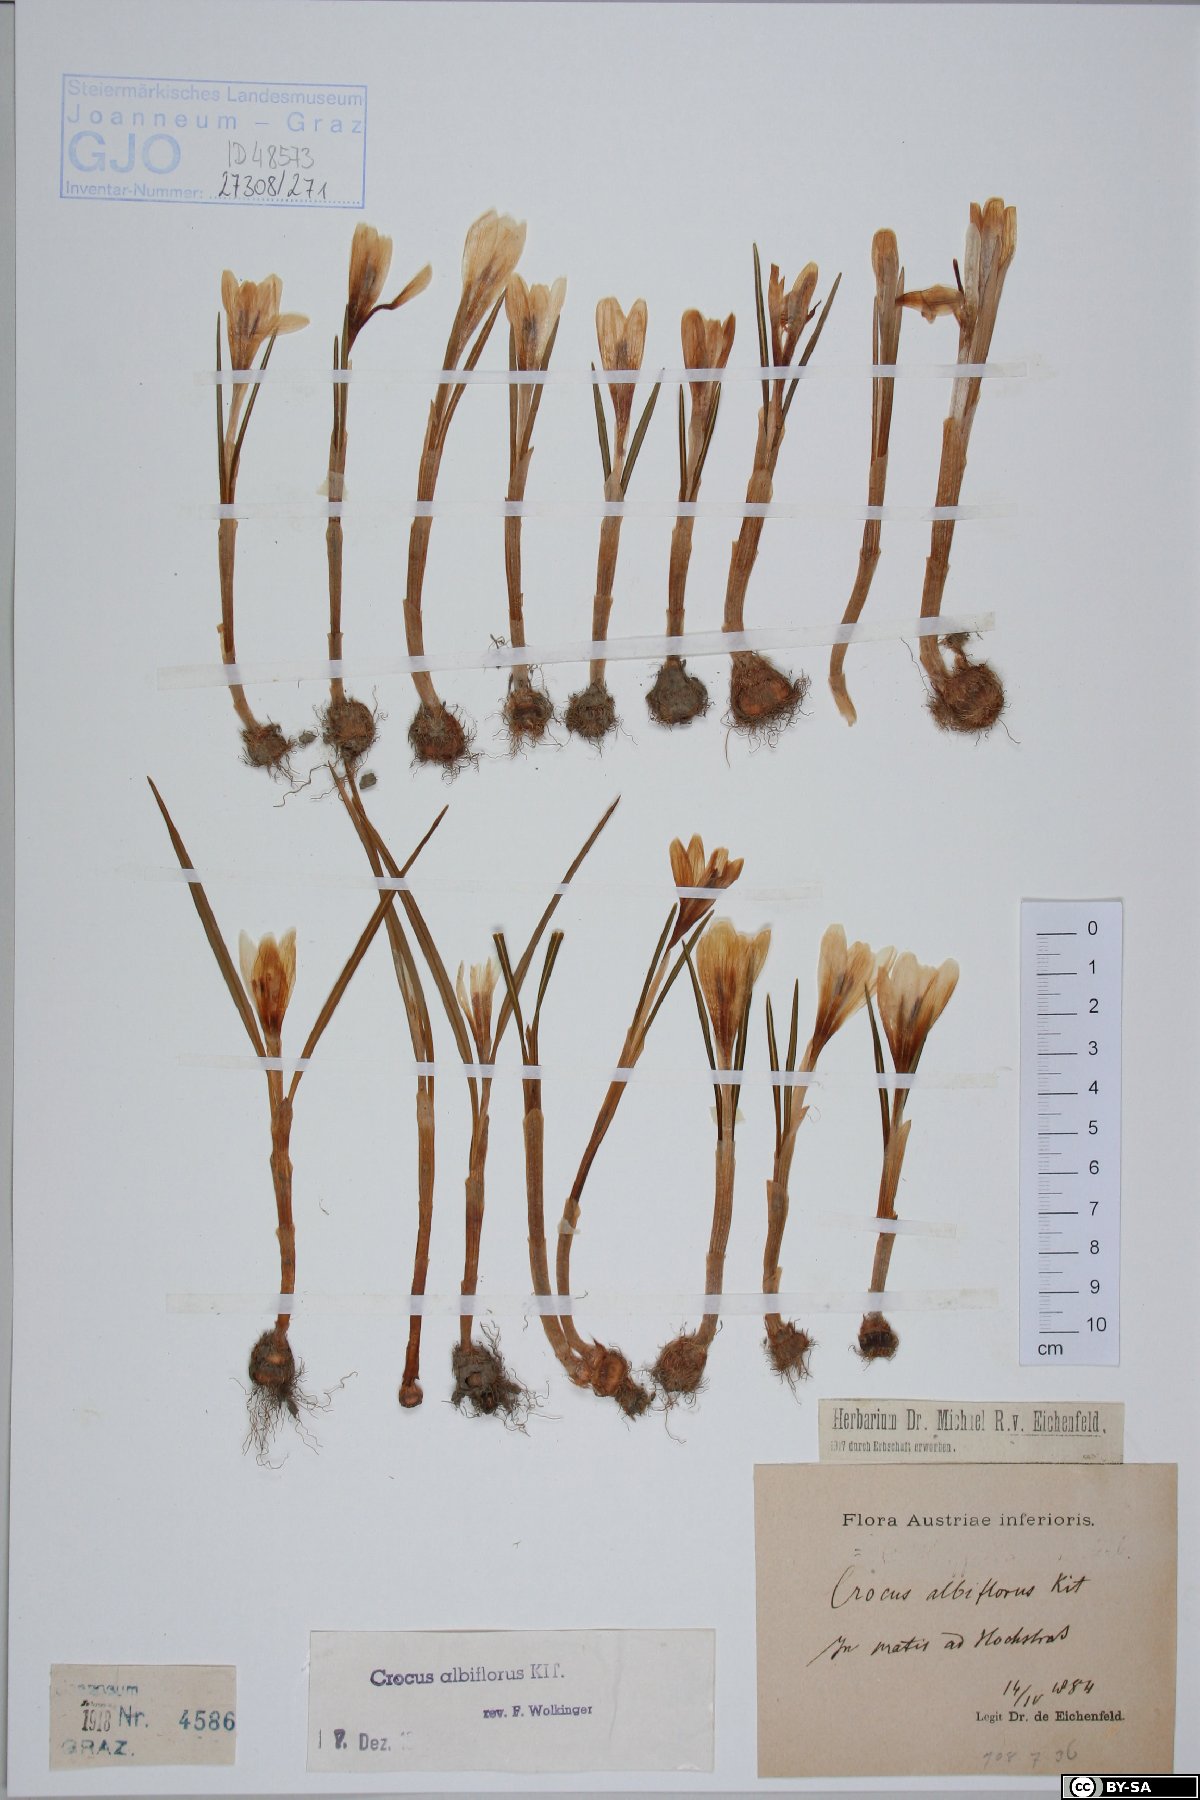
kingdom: Plantae
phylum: Tracheophyta
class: Liliopsida
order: Asparagales
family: Iridaceae
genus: Crocus
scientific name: Crocus vernus
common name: Spring crocus
